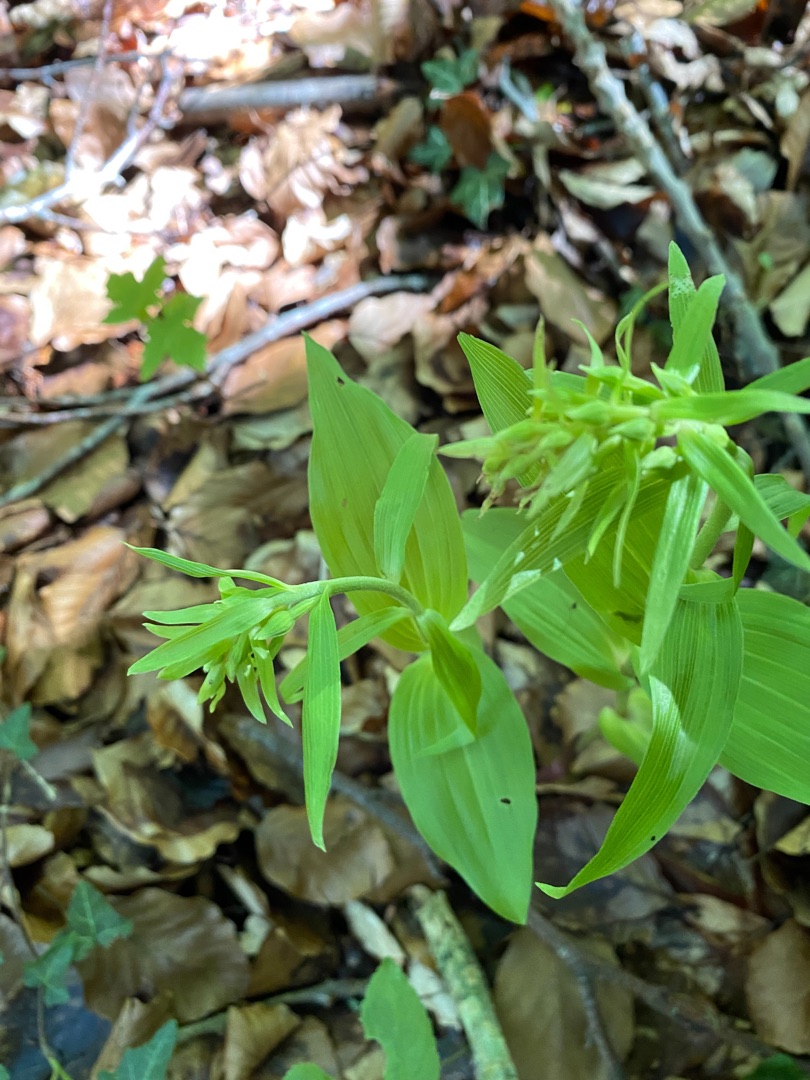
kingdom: Plantae
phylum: Tracheophyta
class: Liliopsida
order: Asparagales
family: Orchidaceae
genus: Epipactis
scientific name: Epipactis helleborine
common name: Skov-hullæbe
